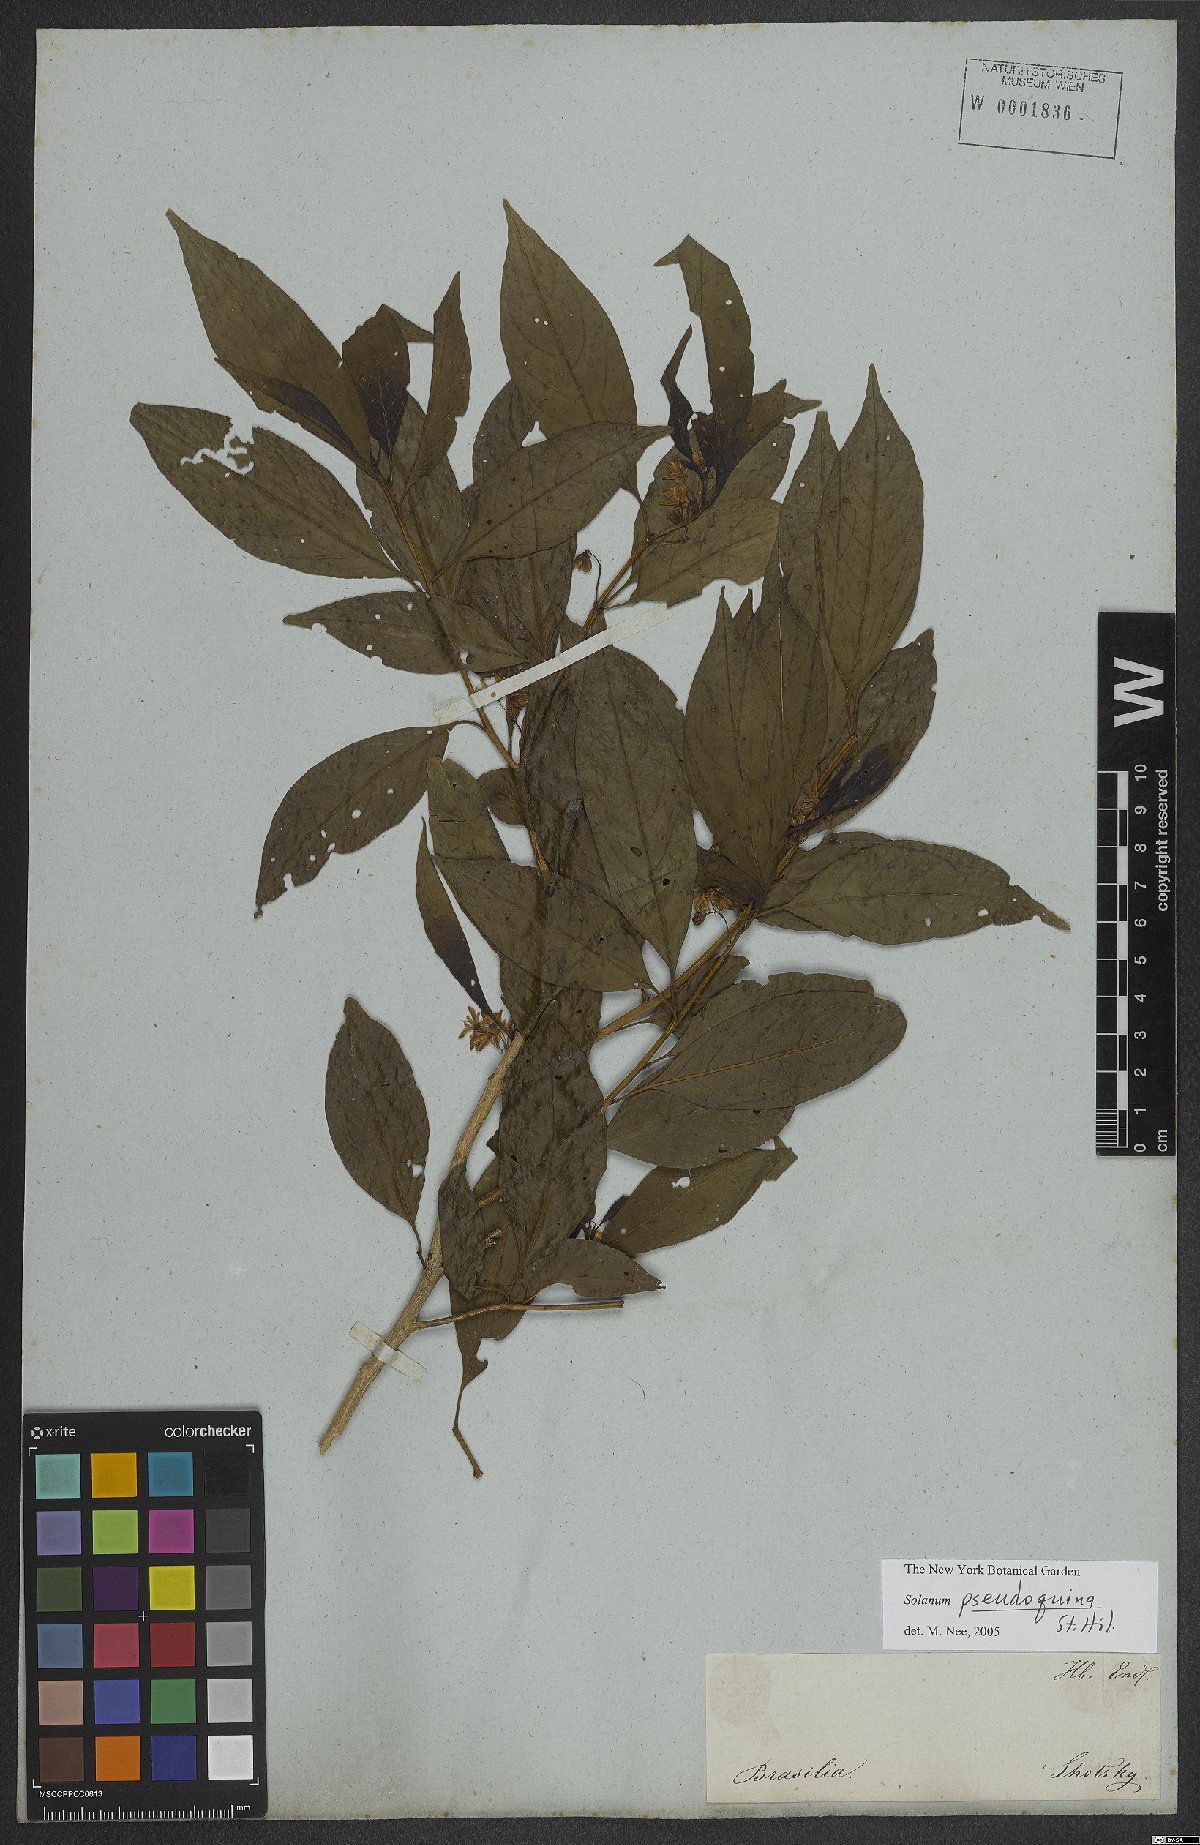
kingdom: Plantae
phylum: Tracheophyta
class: Magnoliopsida
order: Solanales
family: Solanaceae
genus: Solanum
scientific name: Solanum pseudoquina
